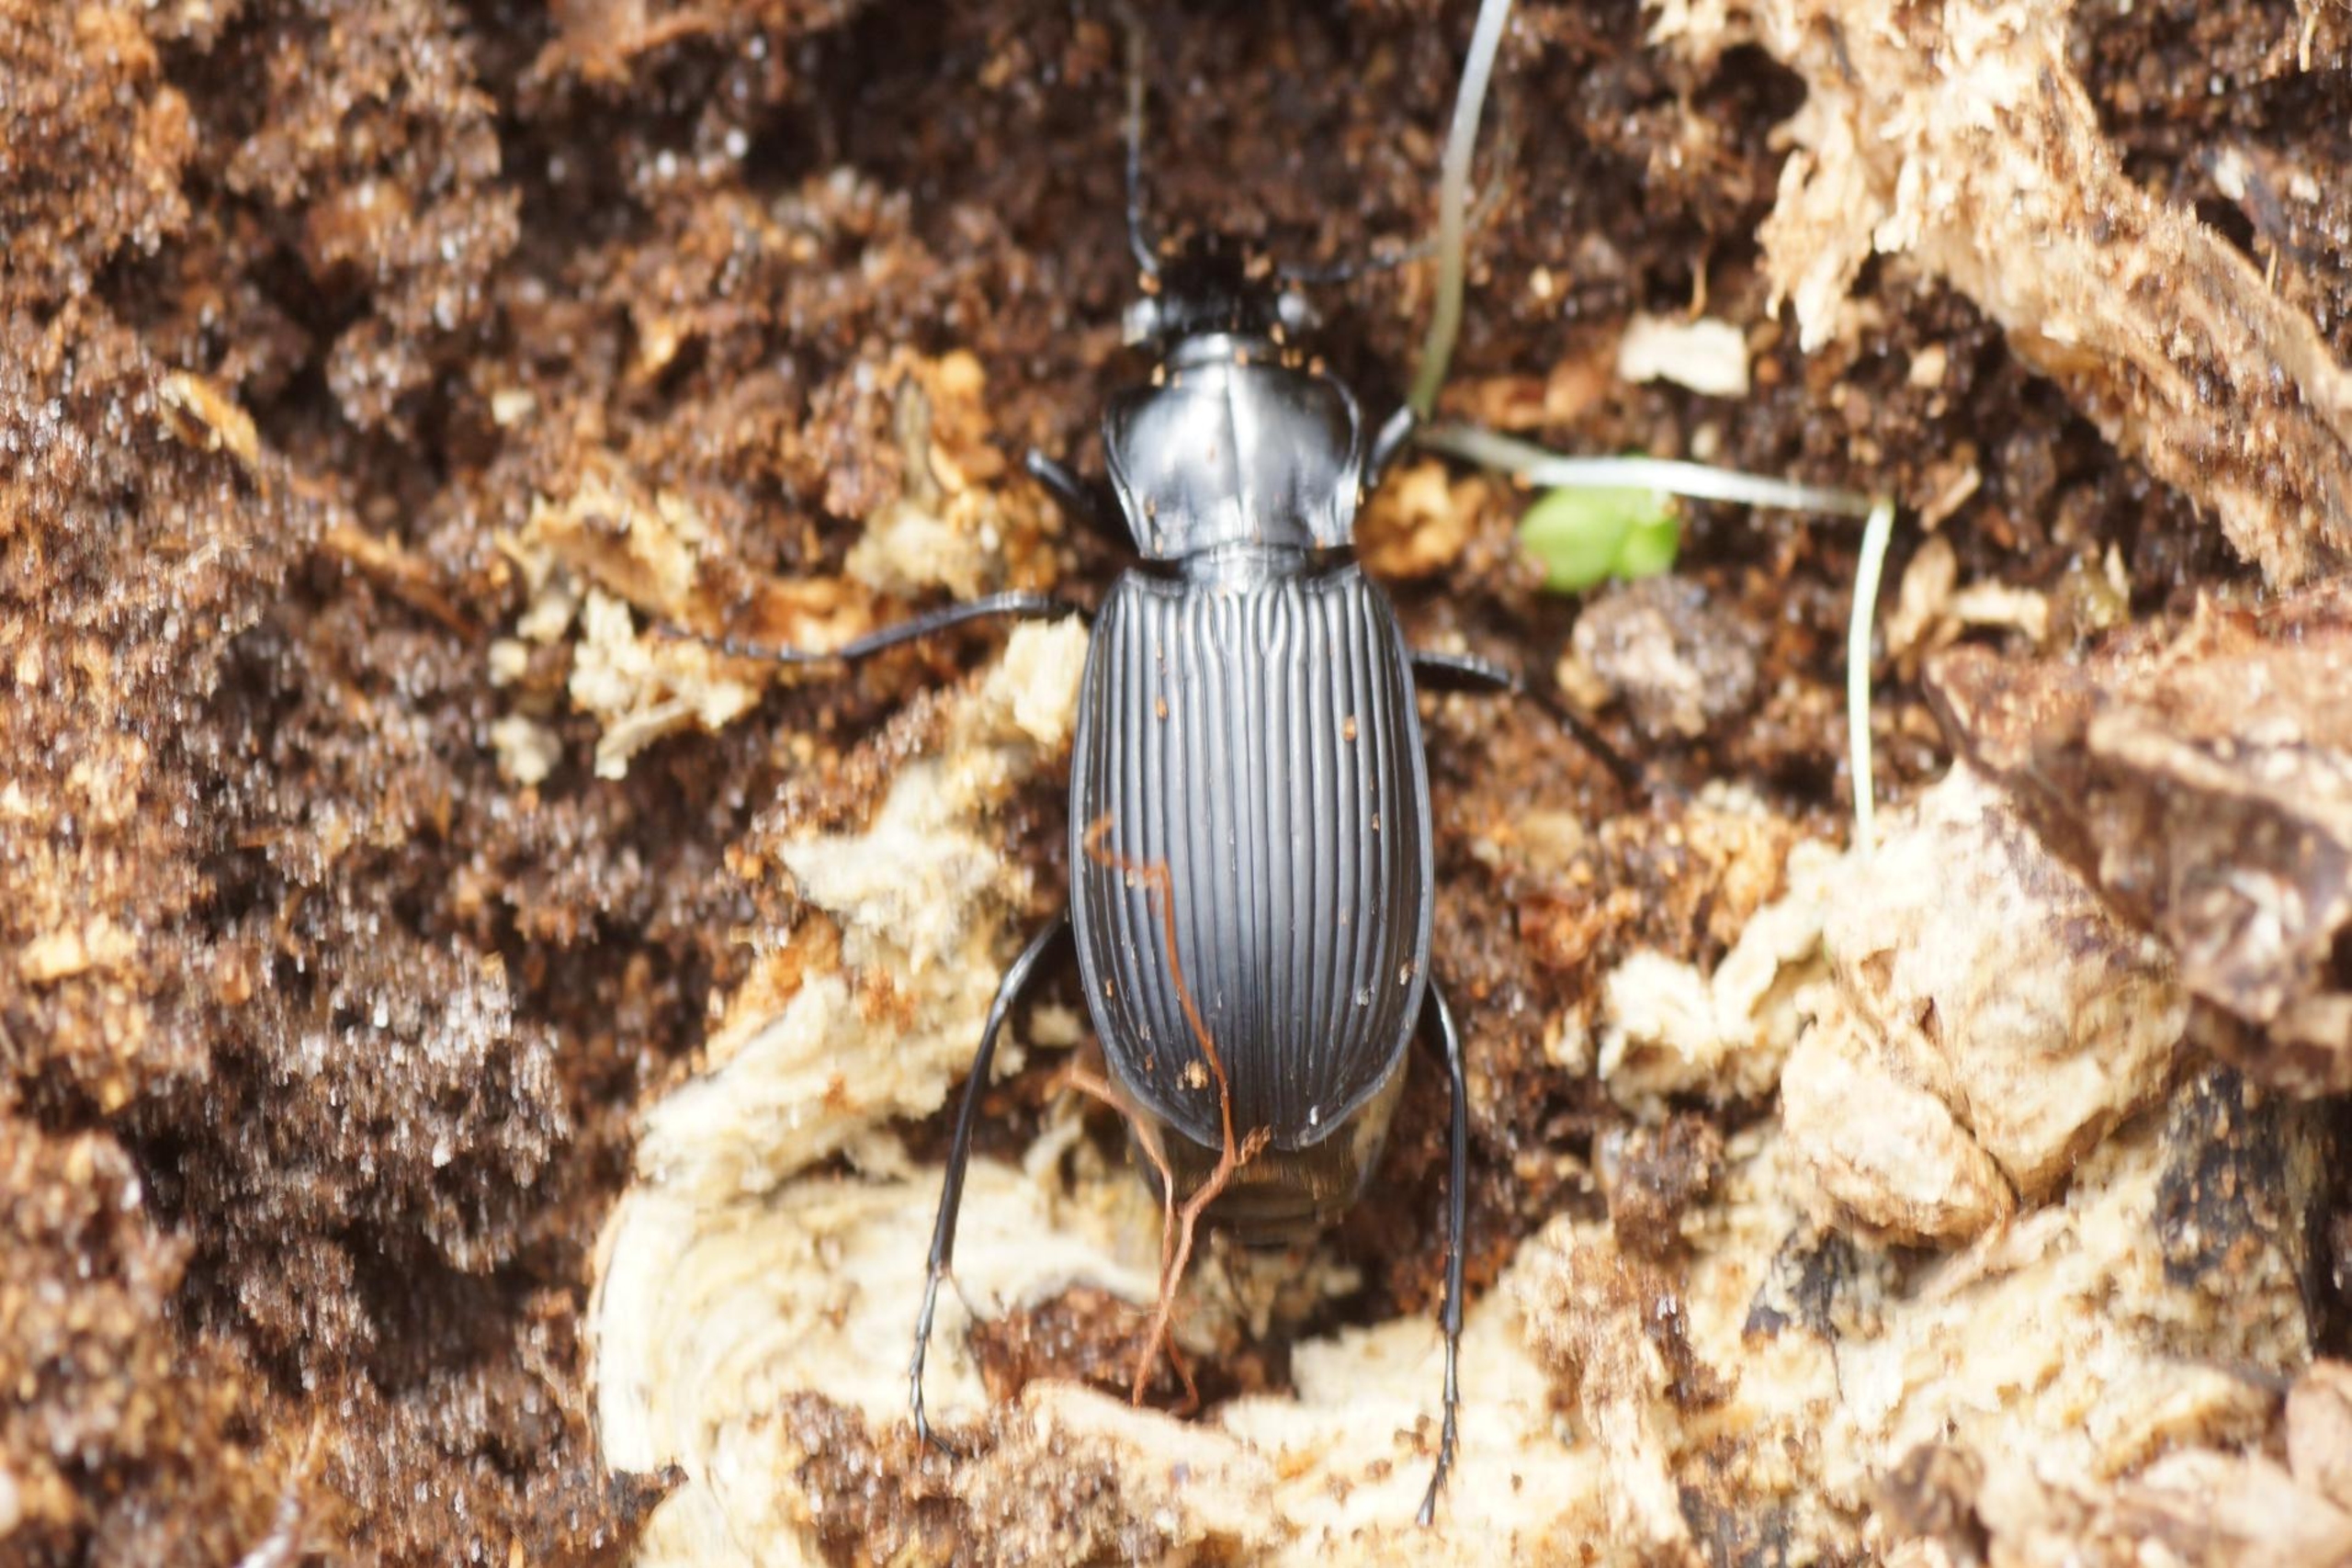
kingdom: Animalia
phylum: Arthropoda
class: Insecta
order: Coleoptera
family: Carabidae
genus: Pterostichus
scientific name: Pterostichus niger
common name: Skovjordløber
